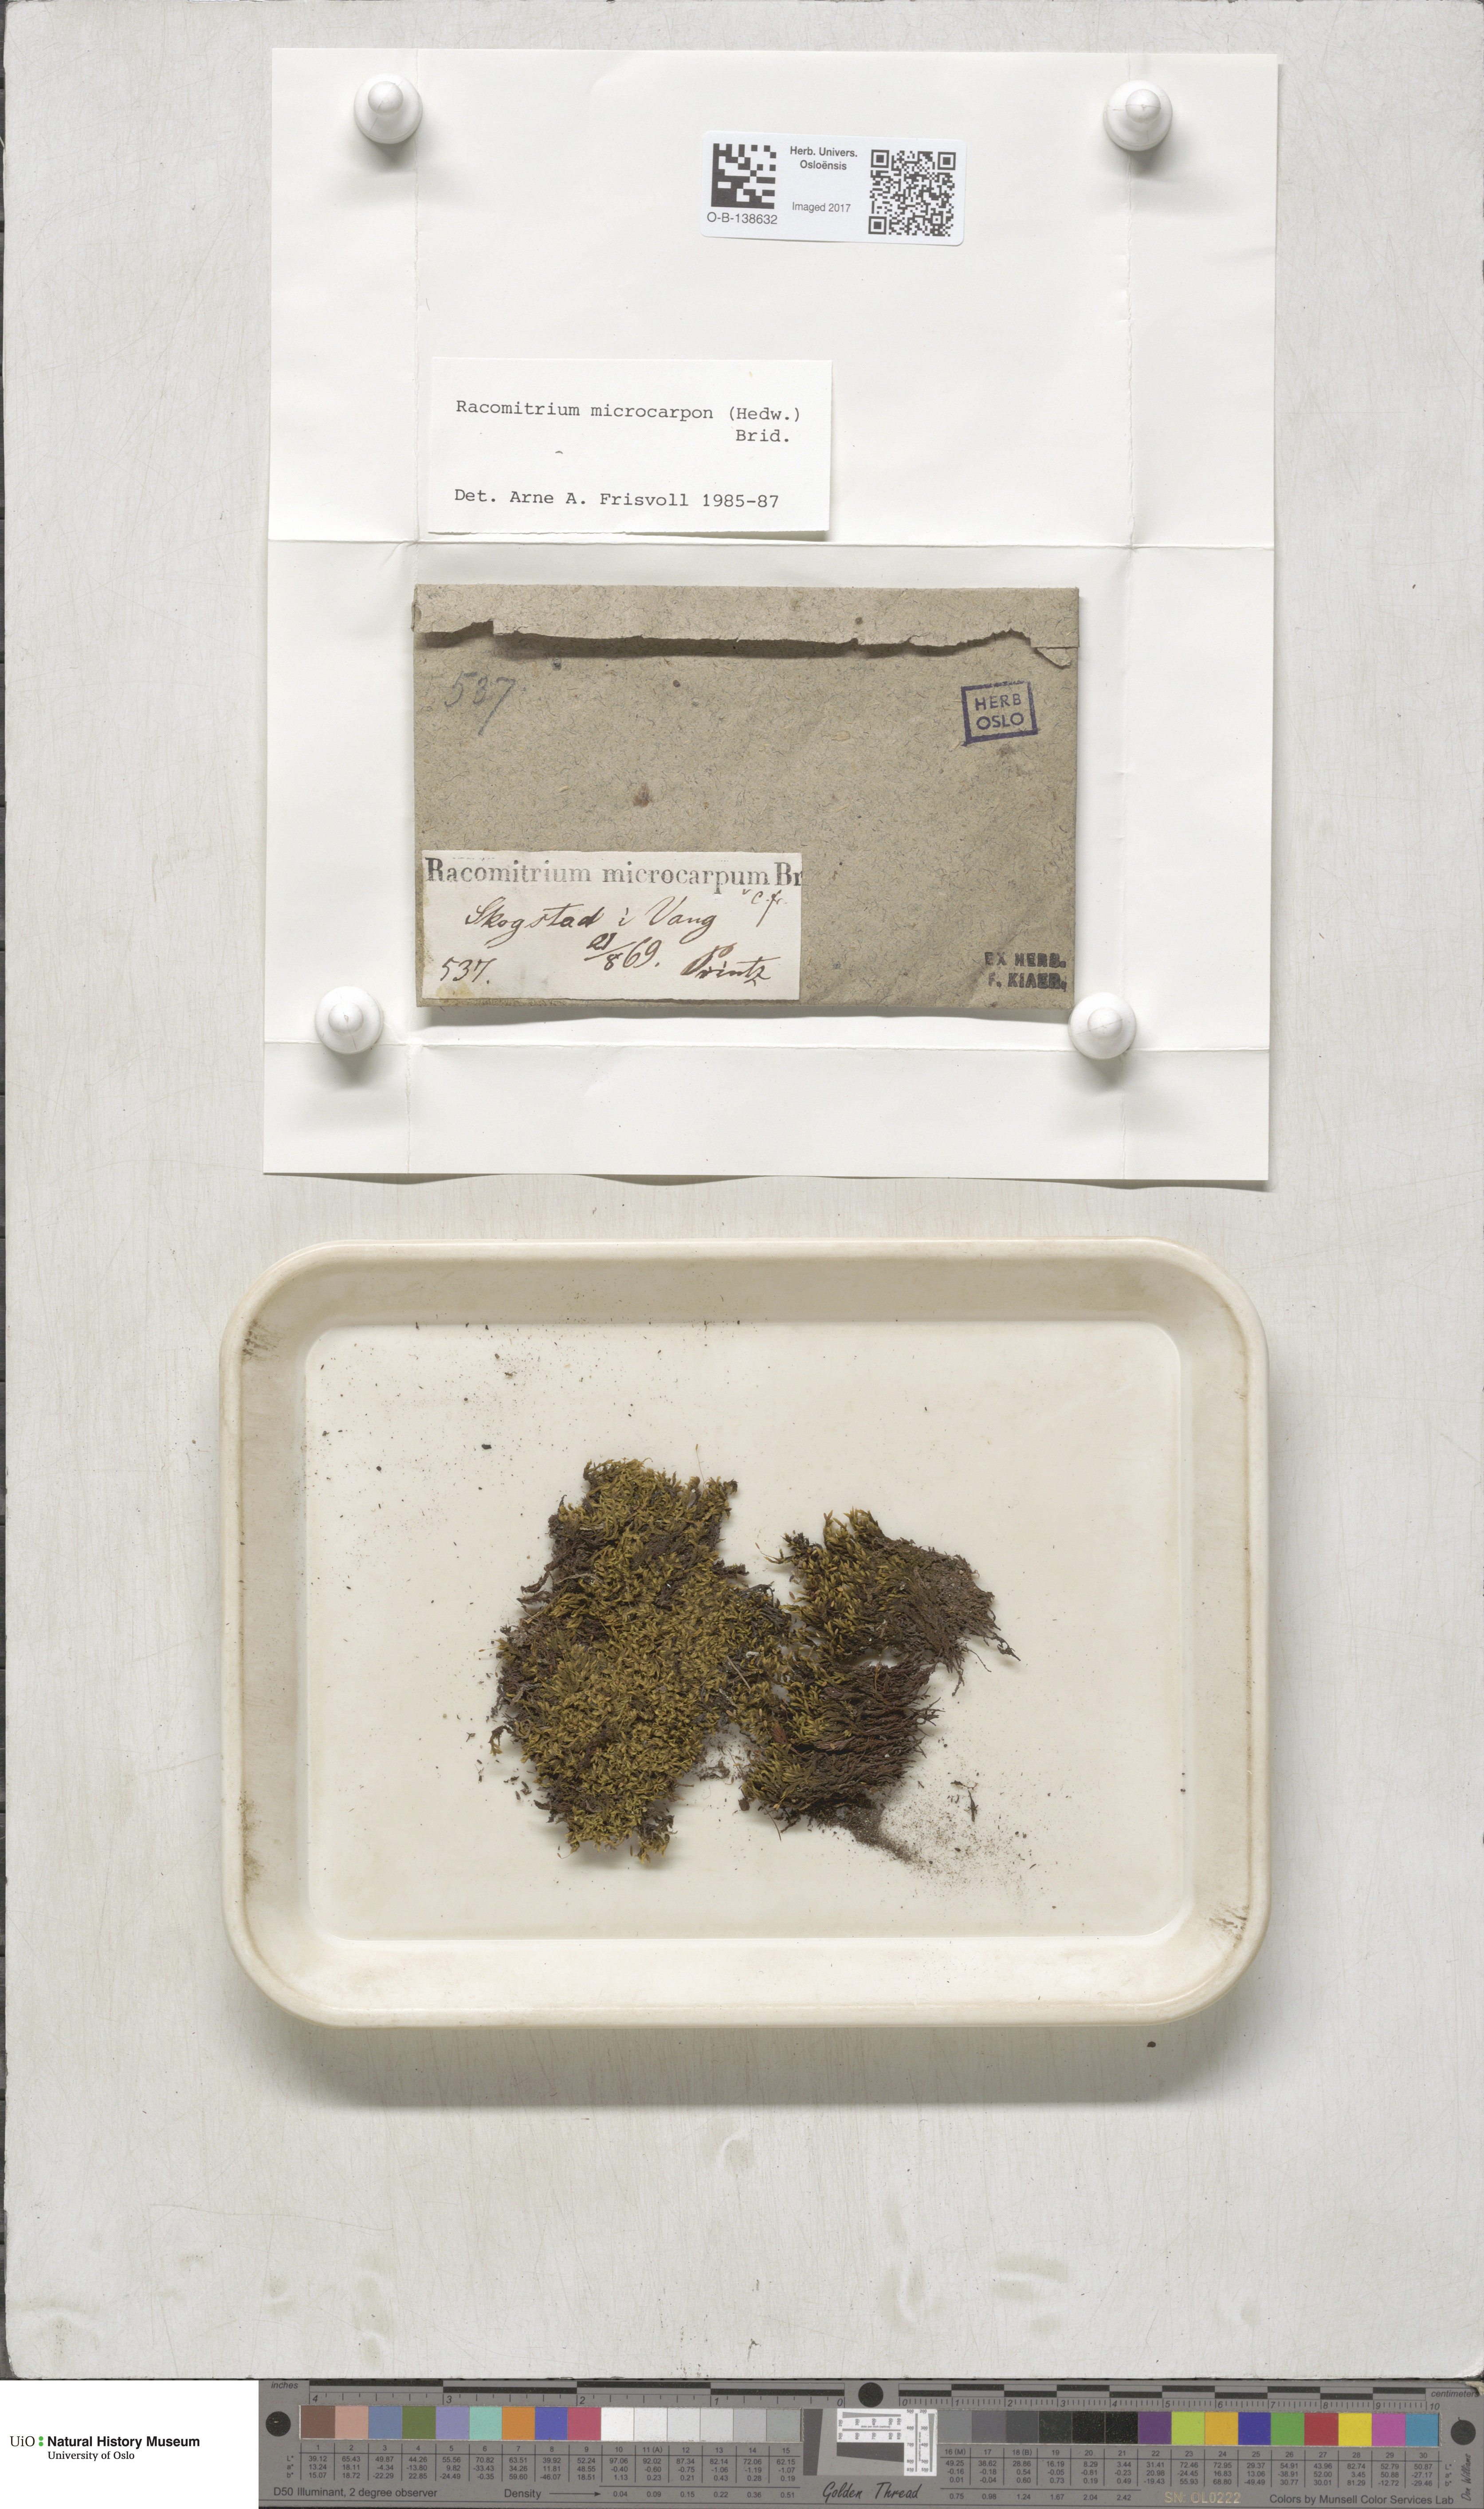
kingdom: Plantae
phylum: Bryophyta
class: Bryopsida
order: Grimmiales
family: Grimmiaceae
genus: Bucklandiella
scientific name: Bucklandiella microcarpos
